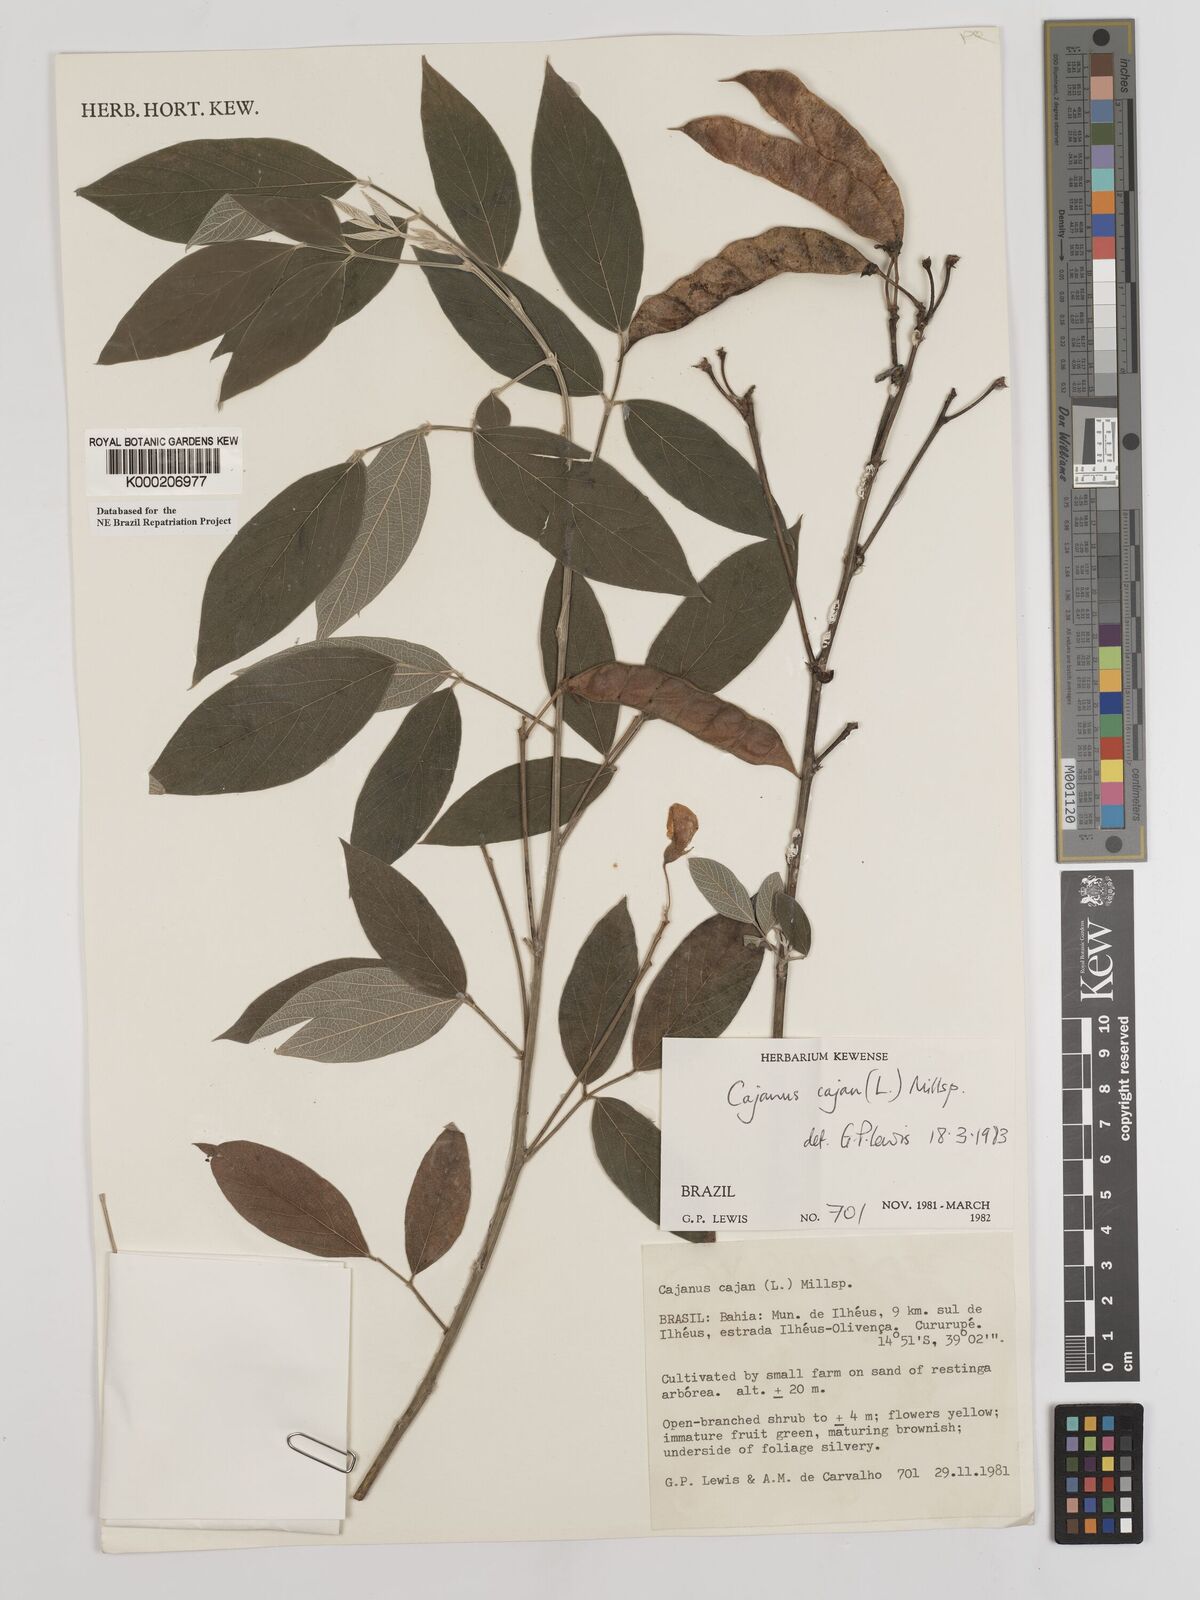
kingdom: Plantae
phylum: Tracheophyta
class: Magnoliopsida
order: Fabales
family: Fabaceae
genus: Cajanus
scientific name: Cajanus
